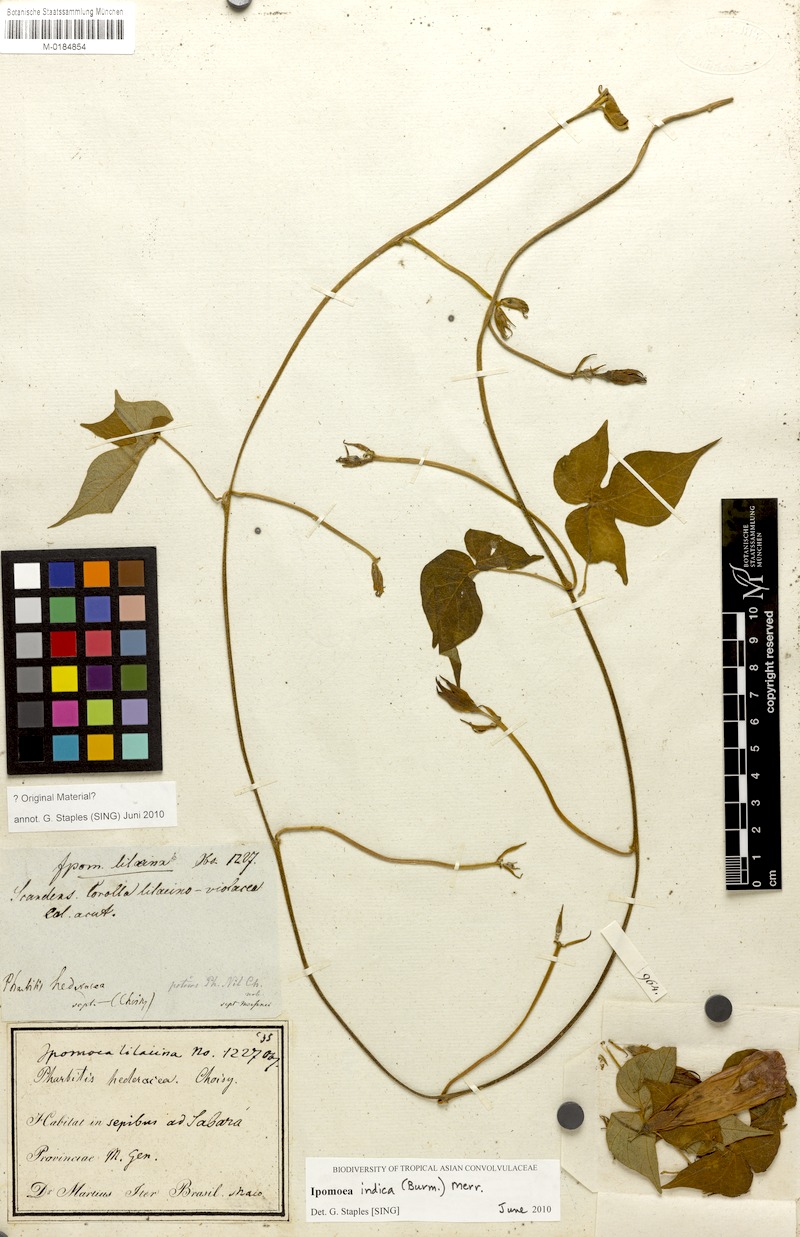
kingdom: Plantae
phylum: Tracheophyta
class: Magnoliopsida
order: Solanales
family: Convolvulaceae
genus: Ipomoea
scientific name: Ipomoea indica
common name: Blue dawnflower
